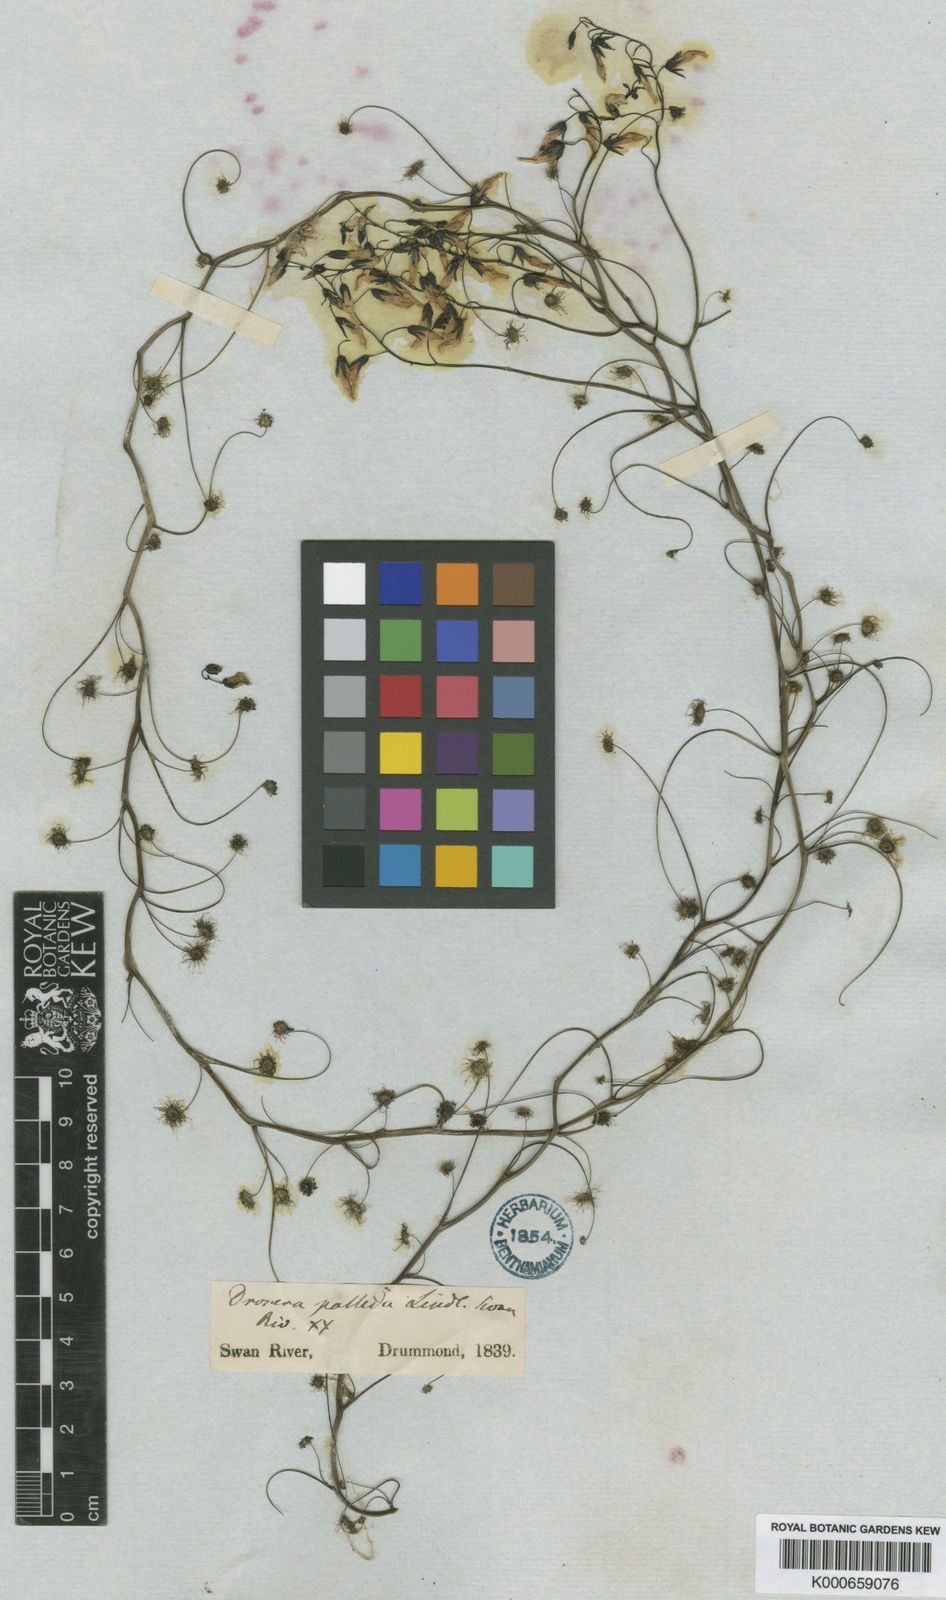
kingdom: Plantae
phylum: Tracheophyta
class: Magnoliopsida
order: Caryophyllales
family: Droseraceae
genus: Drosera
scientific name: Drosera pallida
